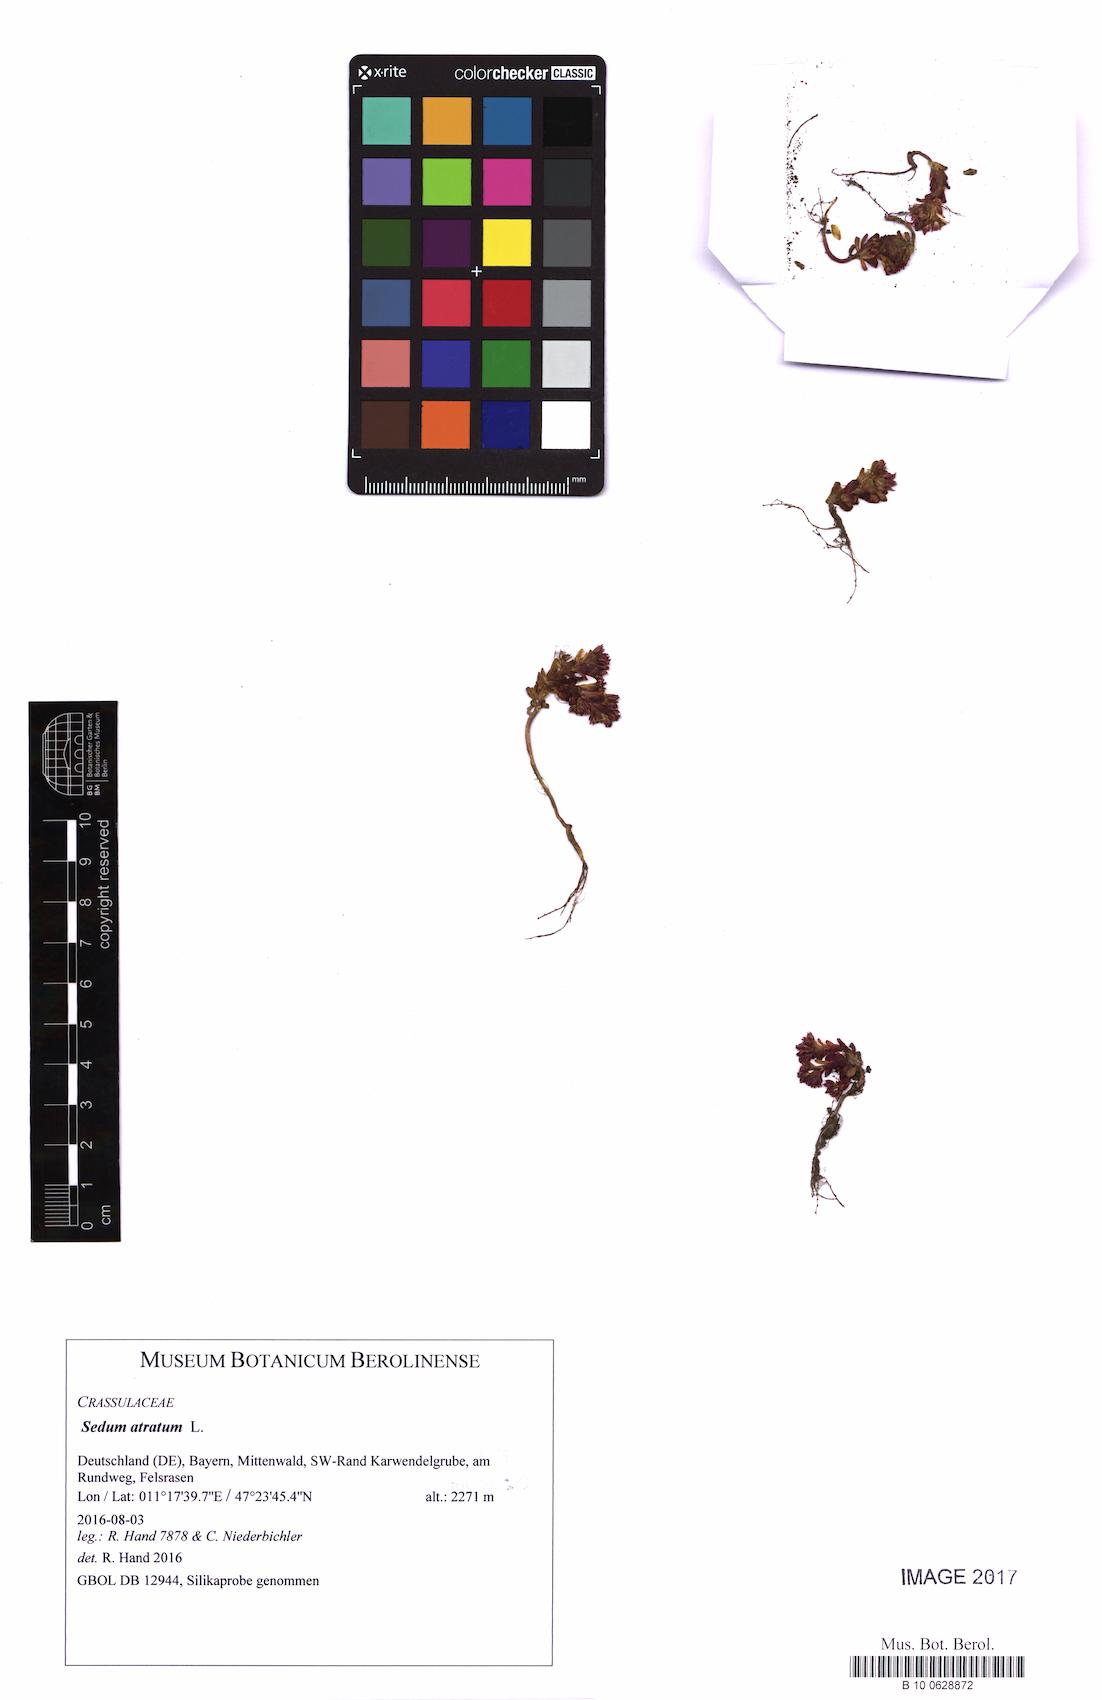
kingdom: Plantae
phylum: Tracheophyta
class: Magnoliopsida
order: Saxifragales
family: Crassulaceae
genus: Sedum
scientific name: Sedum atratum
